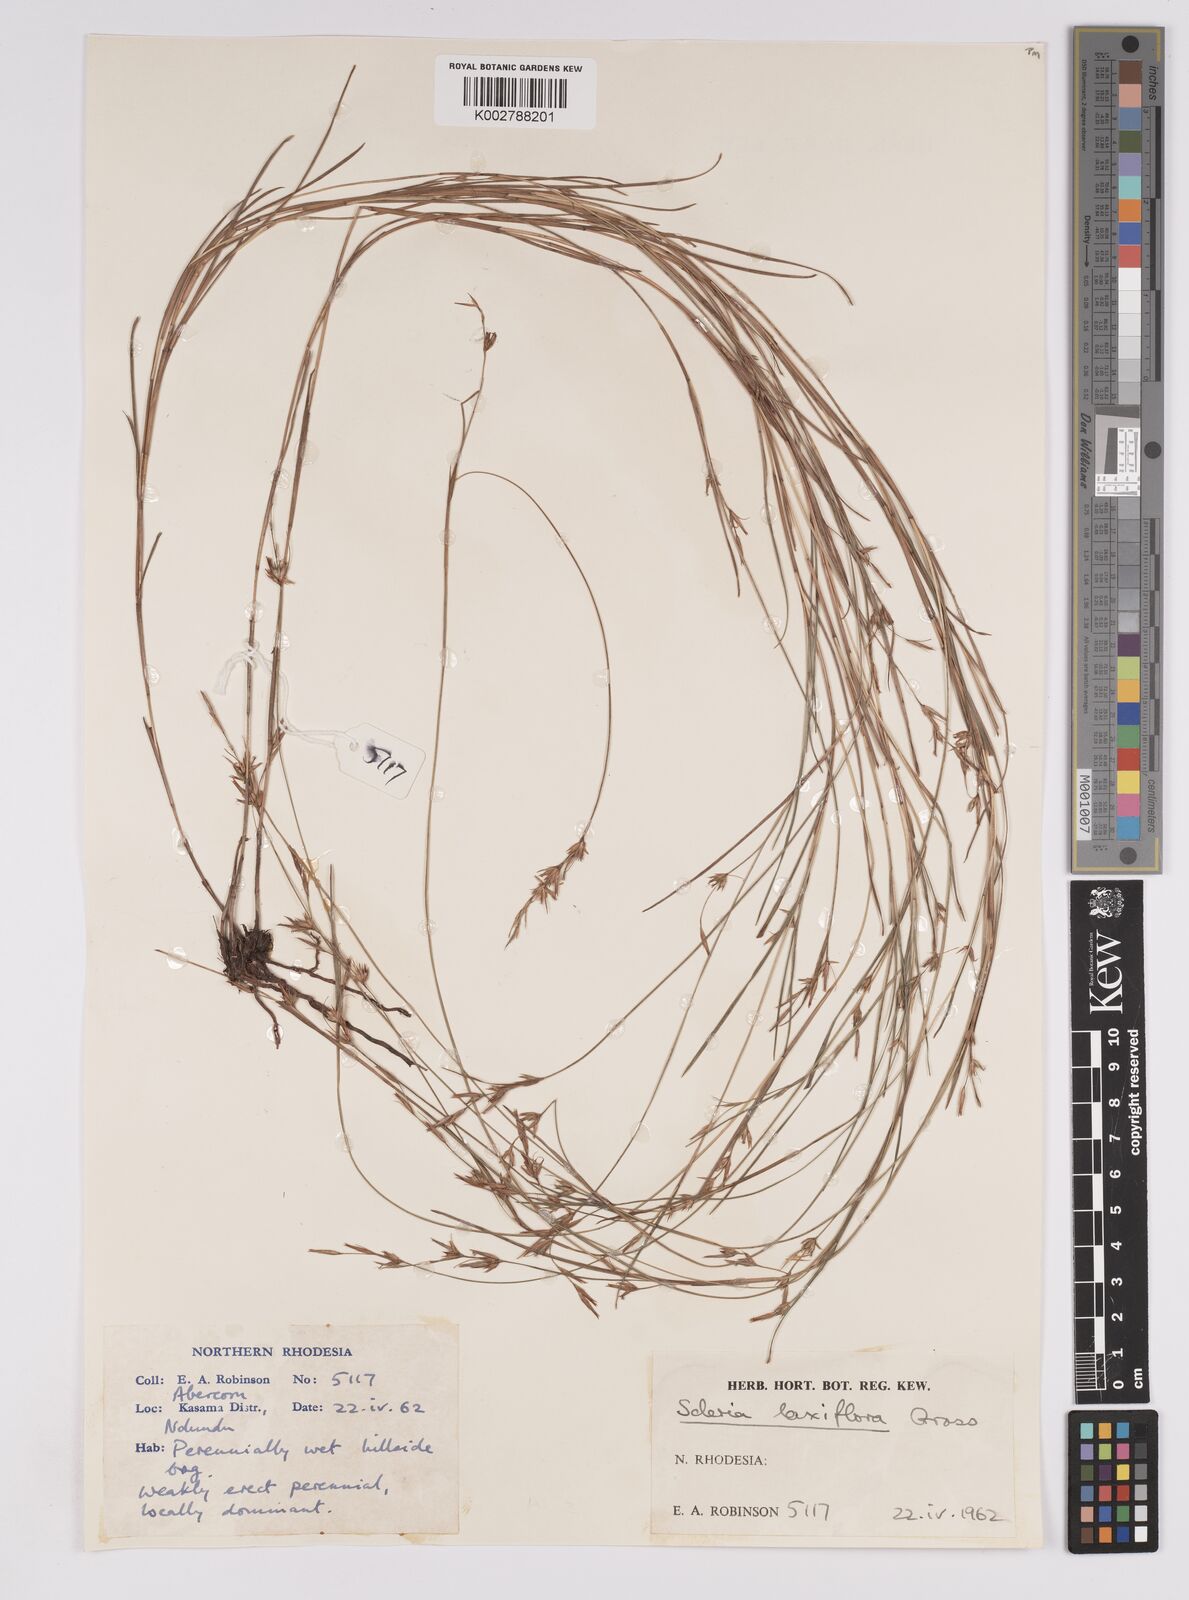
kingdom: Plantae
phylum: Tracheophyta
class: Liliopsida
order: Poales
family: Cyperaceae
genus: Scleria
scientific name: Scleria laxiflora
